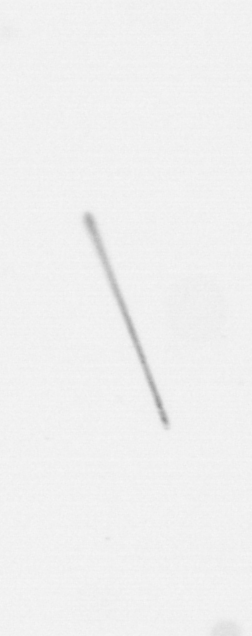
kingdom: Chromista
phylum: Ochrophyta
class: Bacillariophyceae
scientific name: Bacillariophyceae
